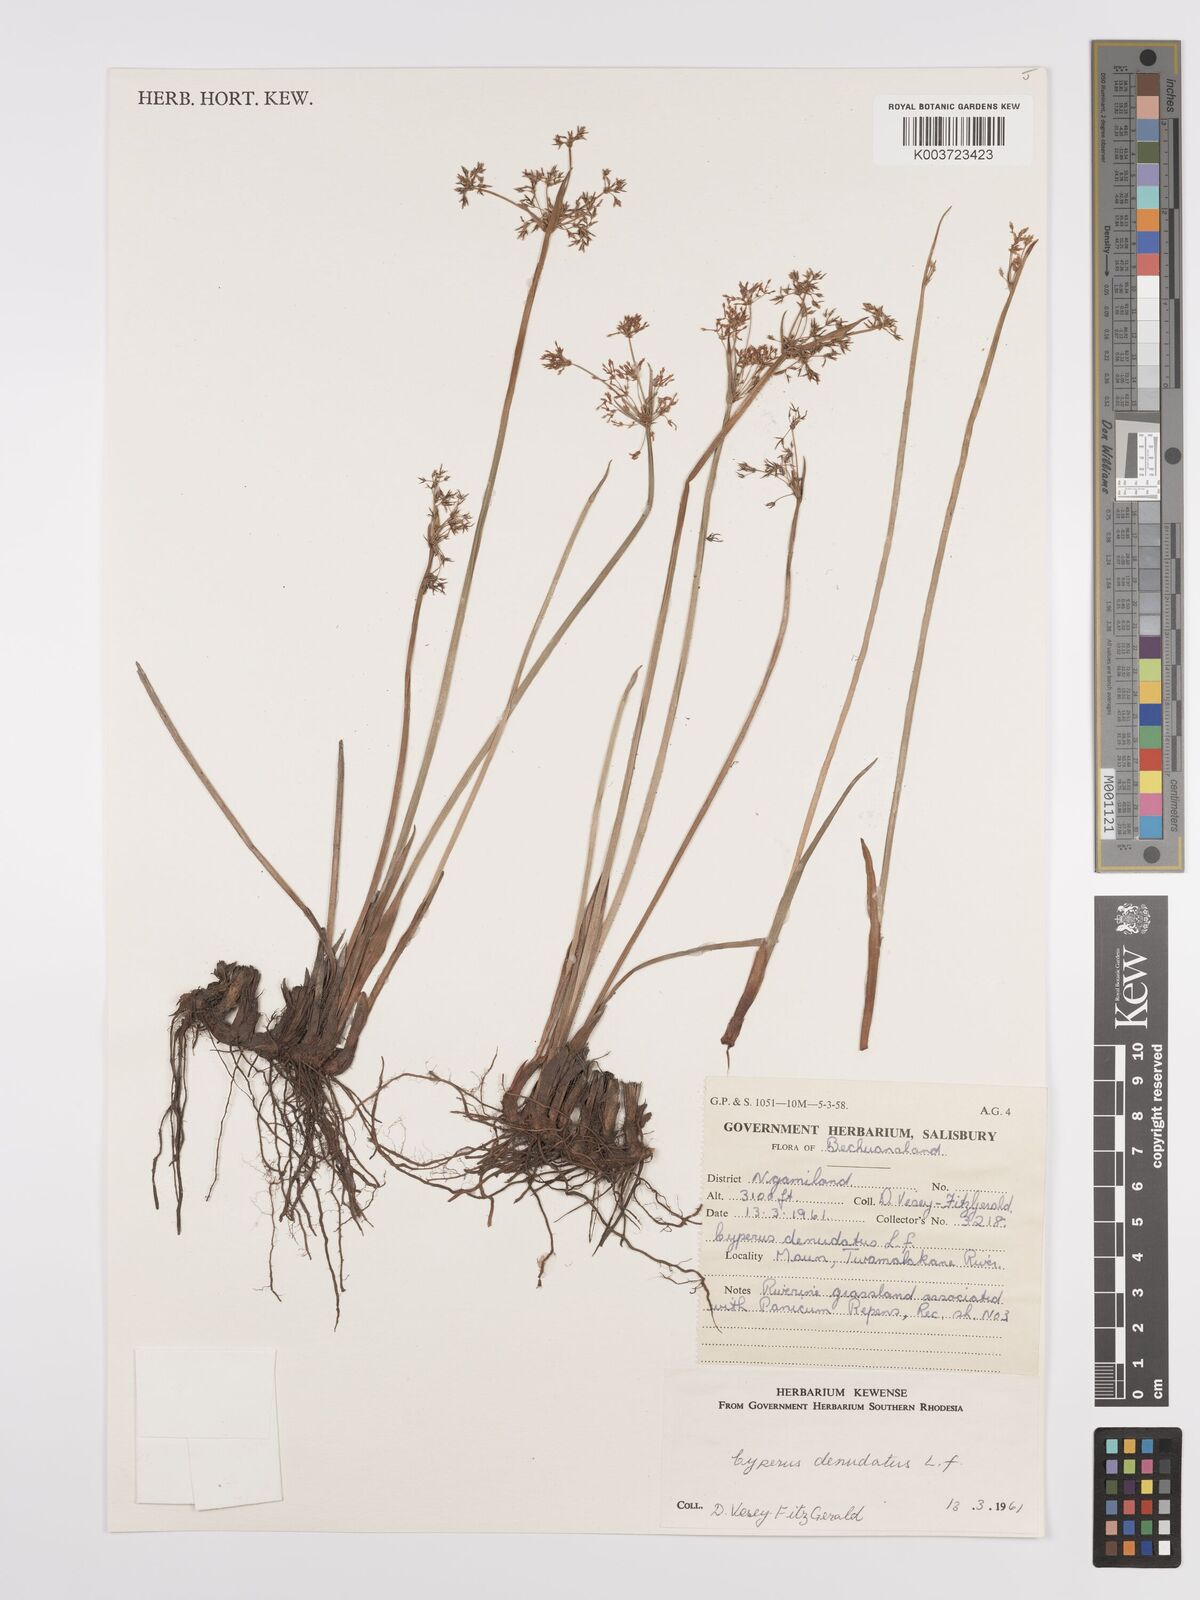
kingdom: Plantae
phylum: Tracheophyta
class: Liliopsida
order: Poales
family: Cyperaceae
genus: Cyperus
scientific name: Cyperus denudatus
